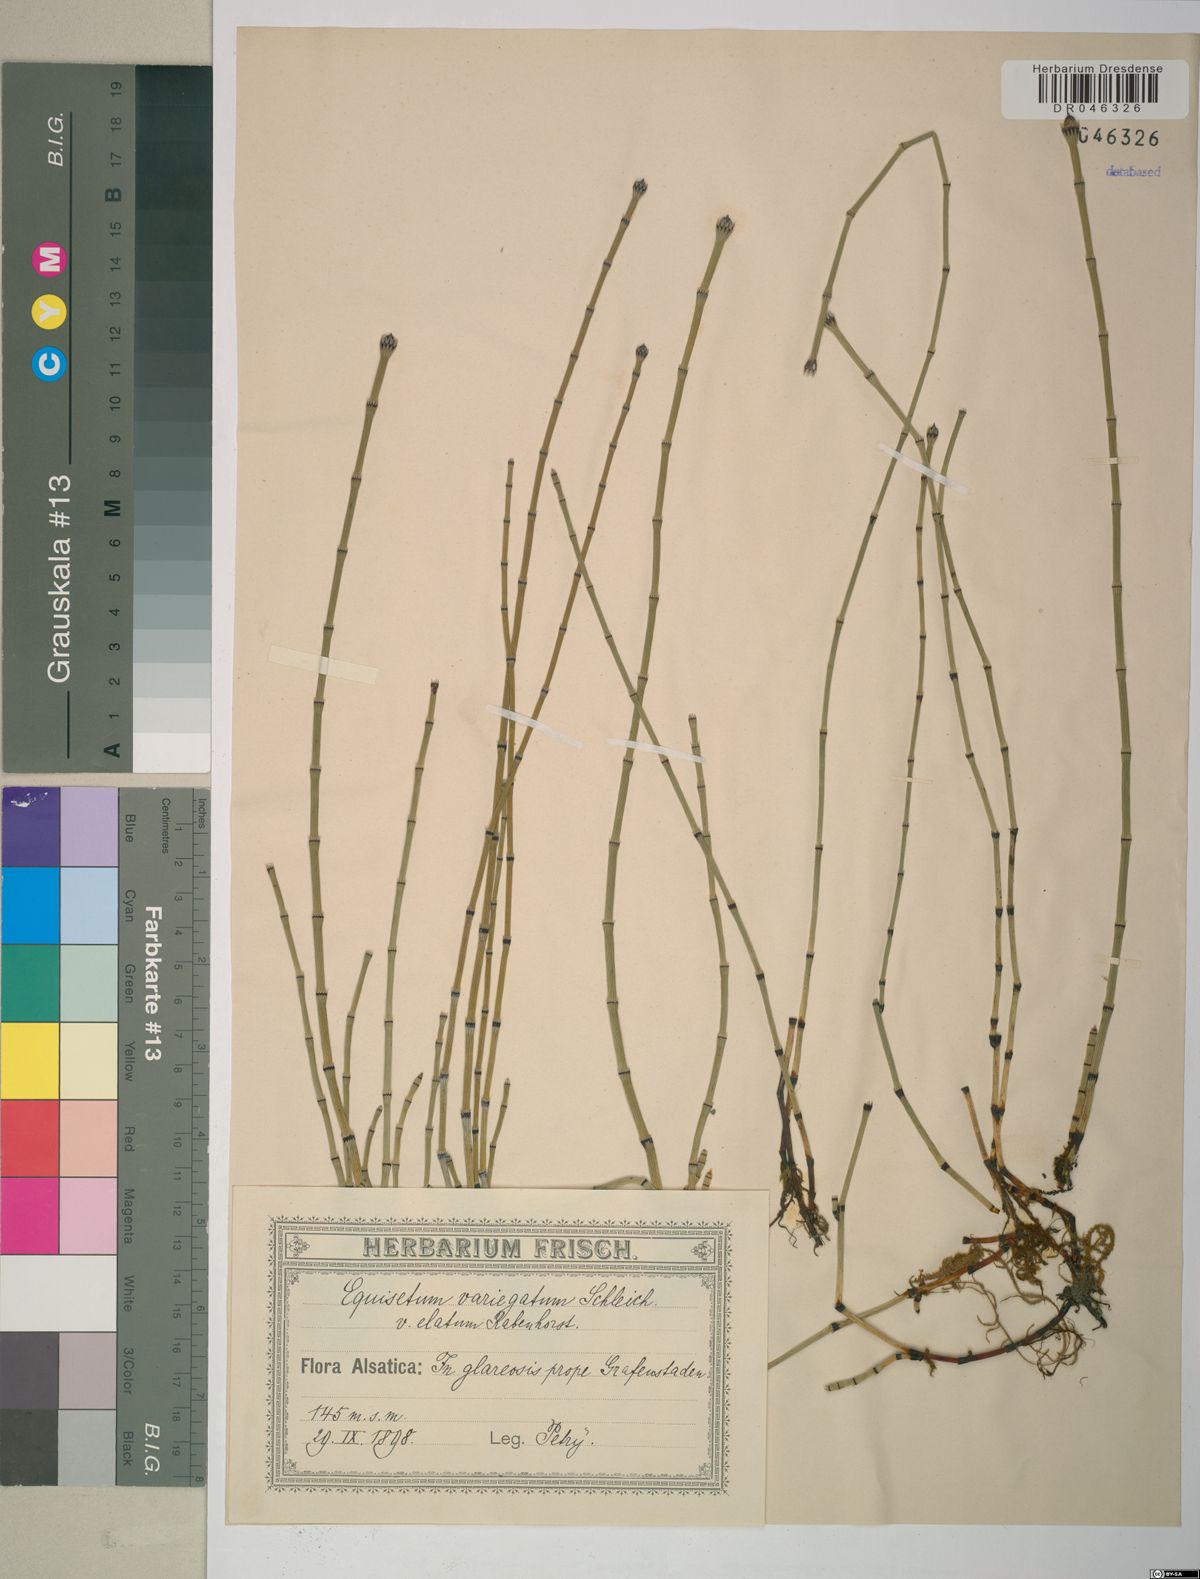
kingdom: Plantae
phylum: Tracheophyta
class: Polypodiopsida
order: Equisetales
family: Equisetaceae
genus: Equisetum
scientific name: Equisetum variegatum
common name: Variegated horsetail
